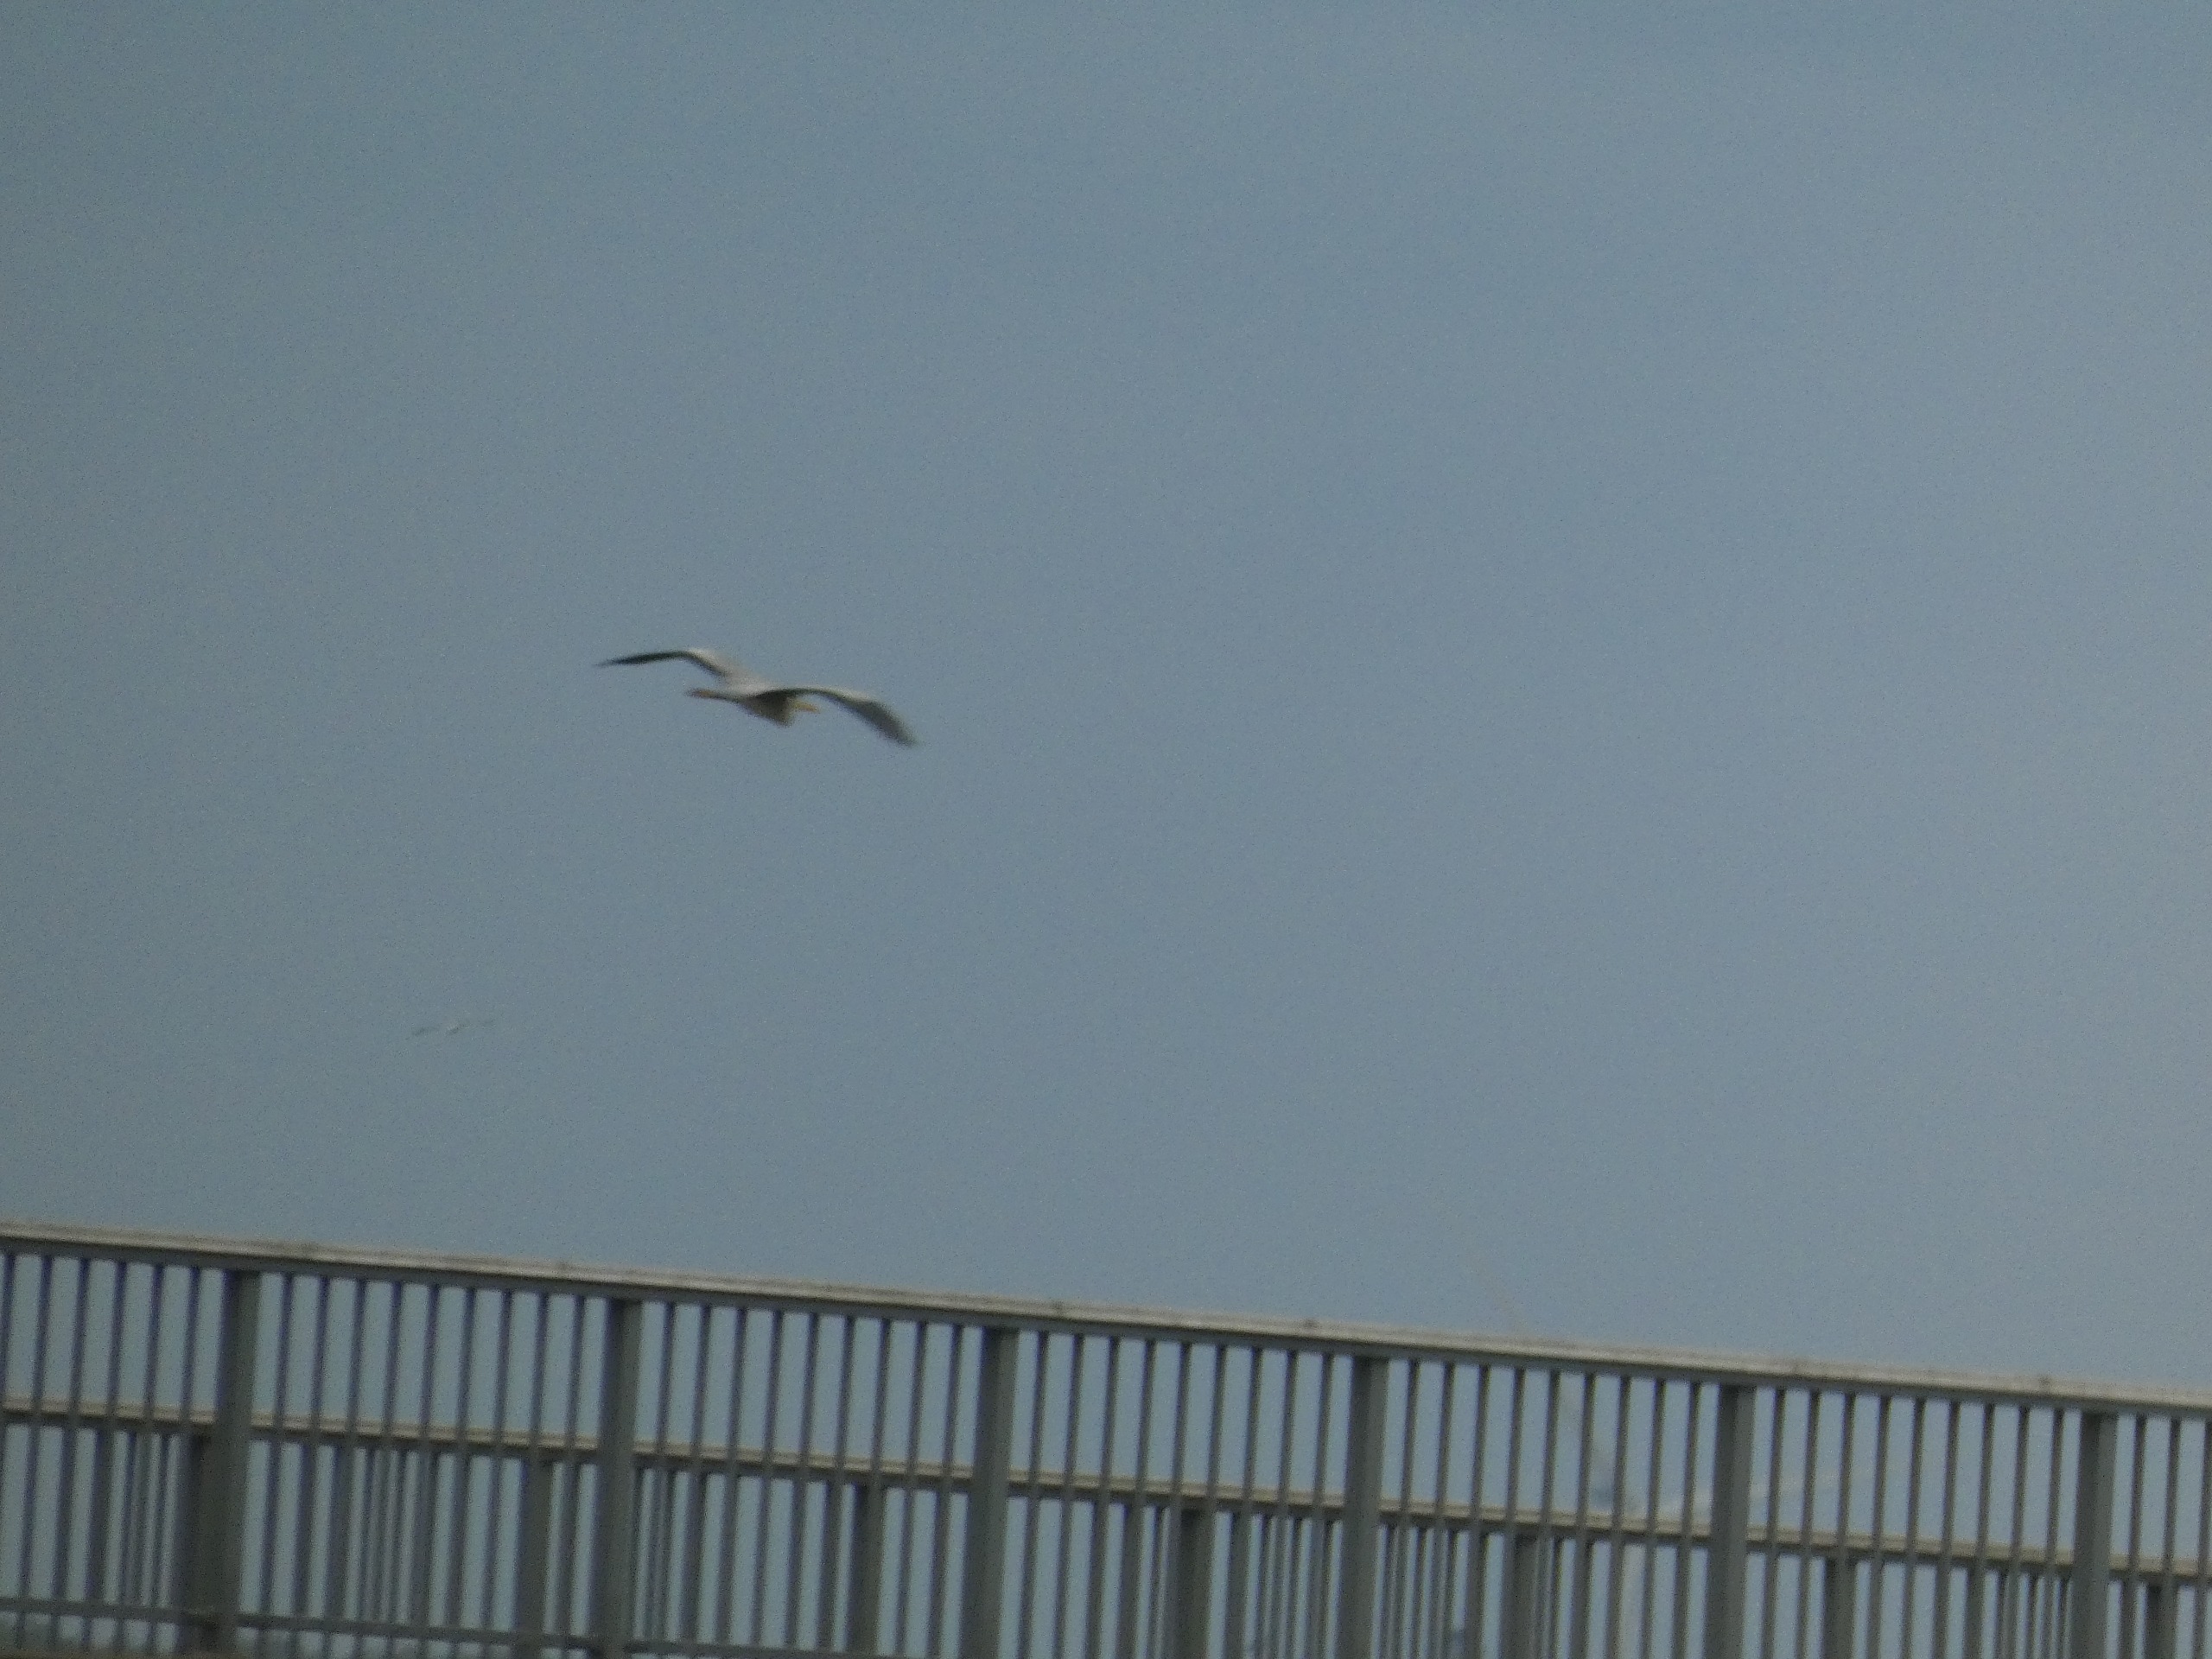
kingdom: Animalia
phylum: Chordata
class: Aves
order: Pelecaniformes
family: Ardeidae
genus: Ardea
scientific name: Ardea cinerea
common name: Fiskehejre
